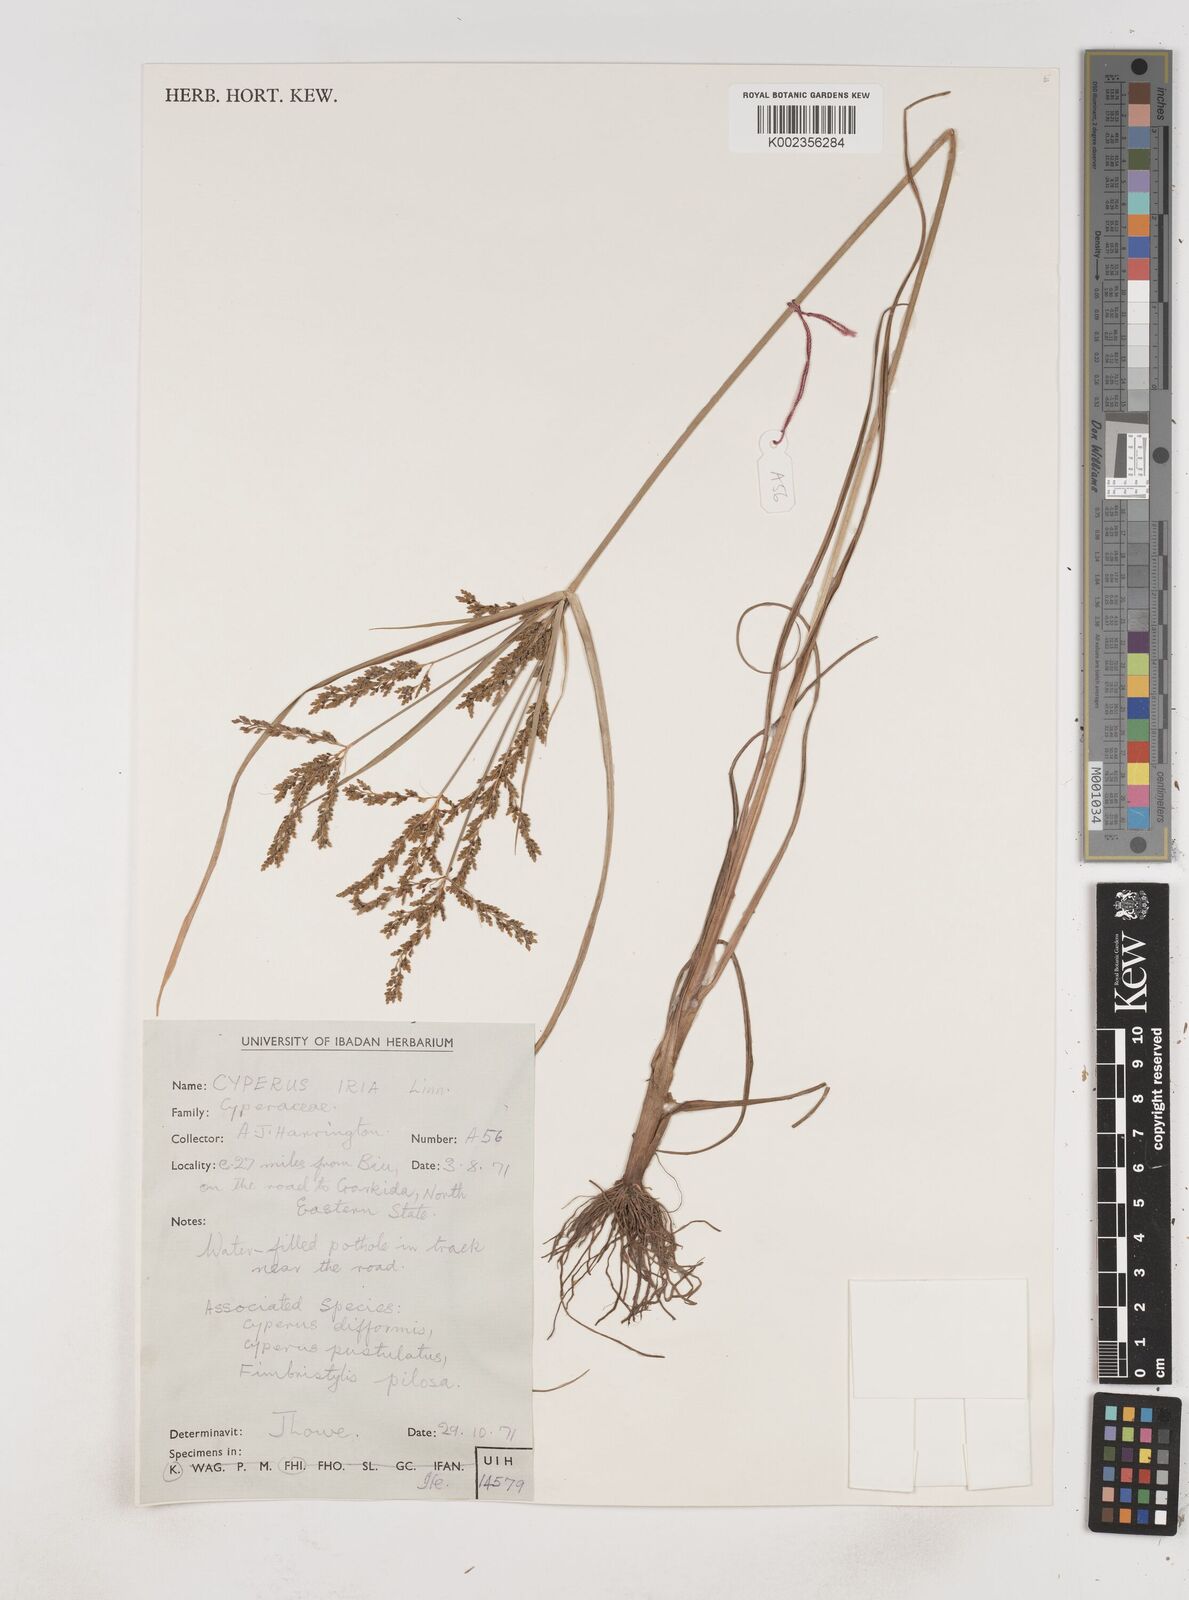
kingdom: Plantae
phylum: Tracheophyta
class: Liliopsida
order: Poales
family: Cyperaceae
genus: Cyperus
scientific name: Cyperus iria
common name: Ricefield flatsedge
